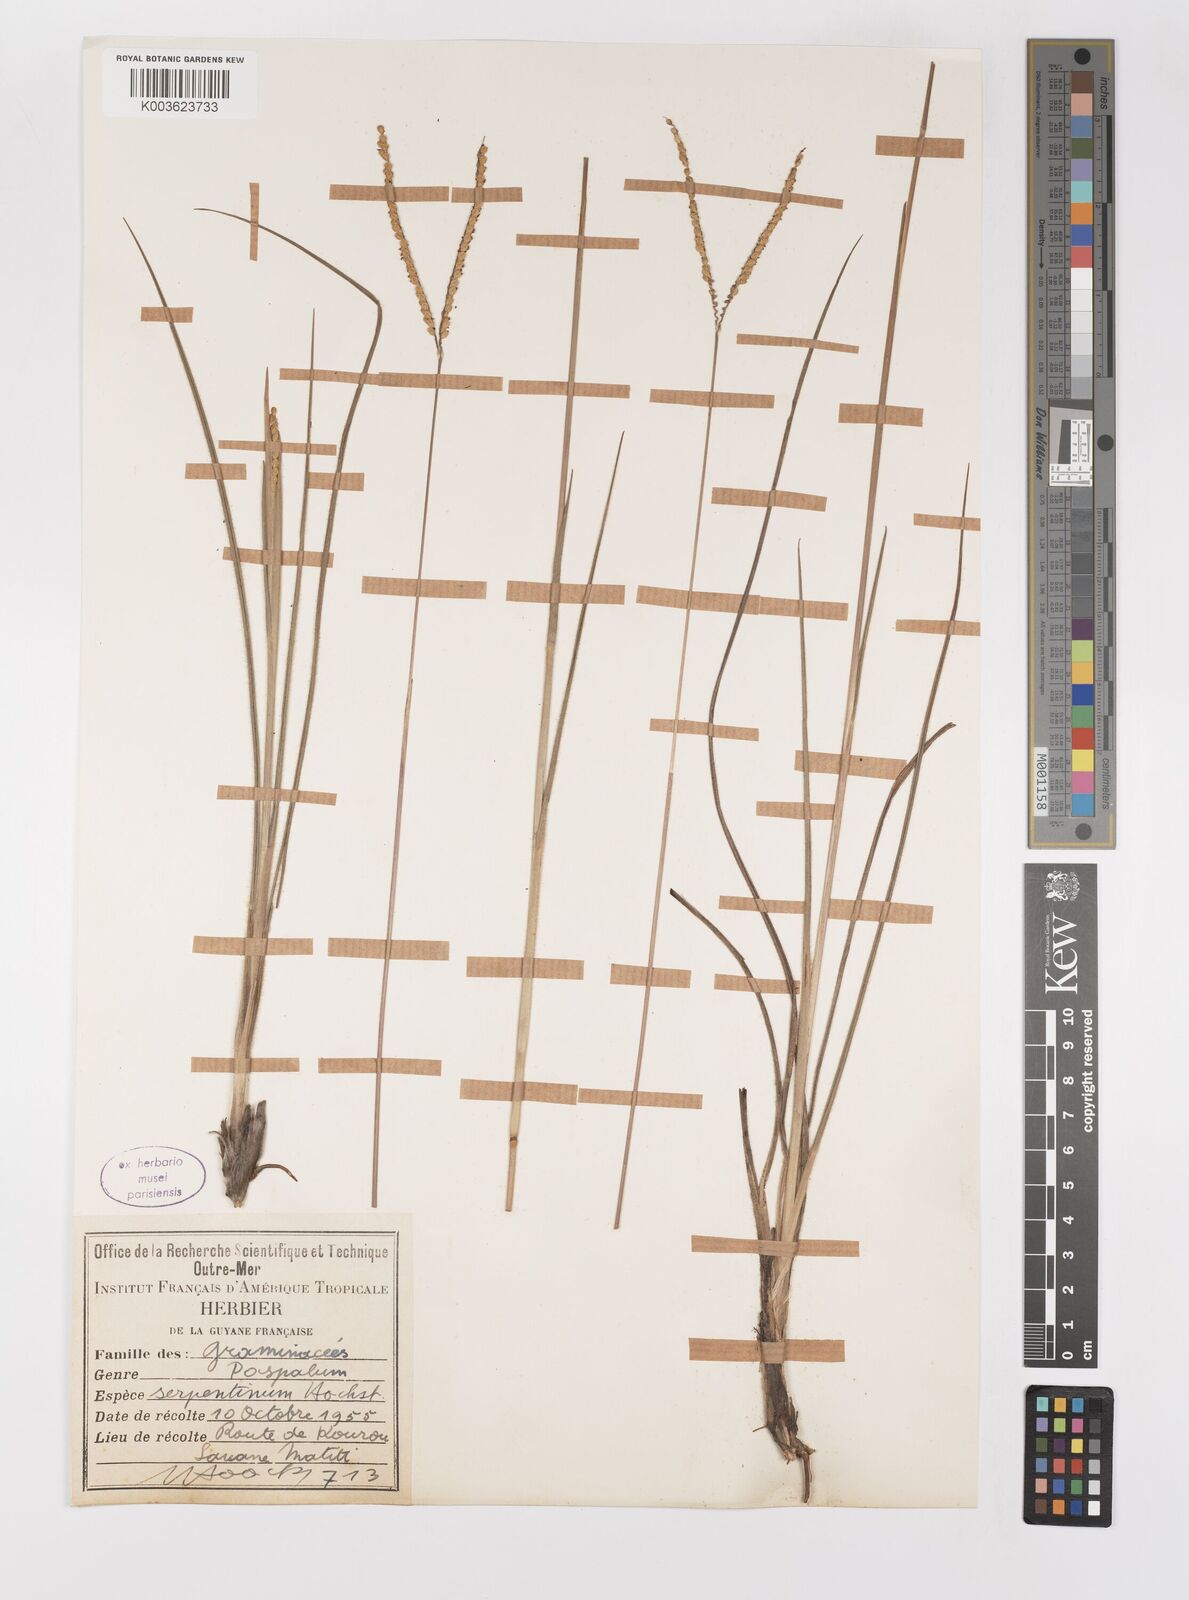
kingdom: Plantae
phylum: Tracheophyta
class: Liliopsida
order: Poales
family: Poaceae
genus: Paspalum
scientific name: Paspalum serpentinum
